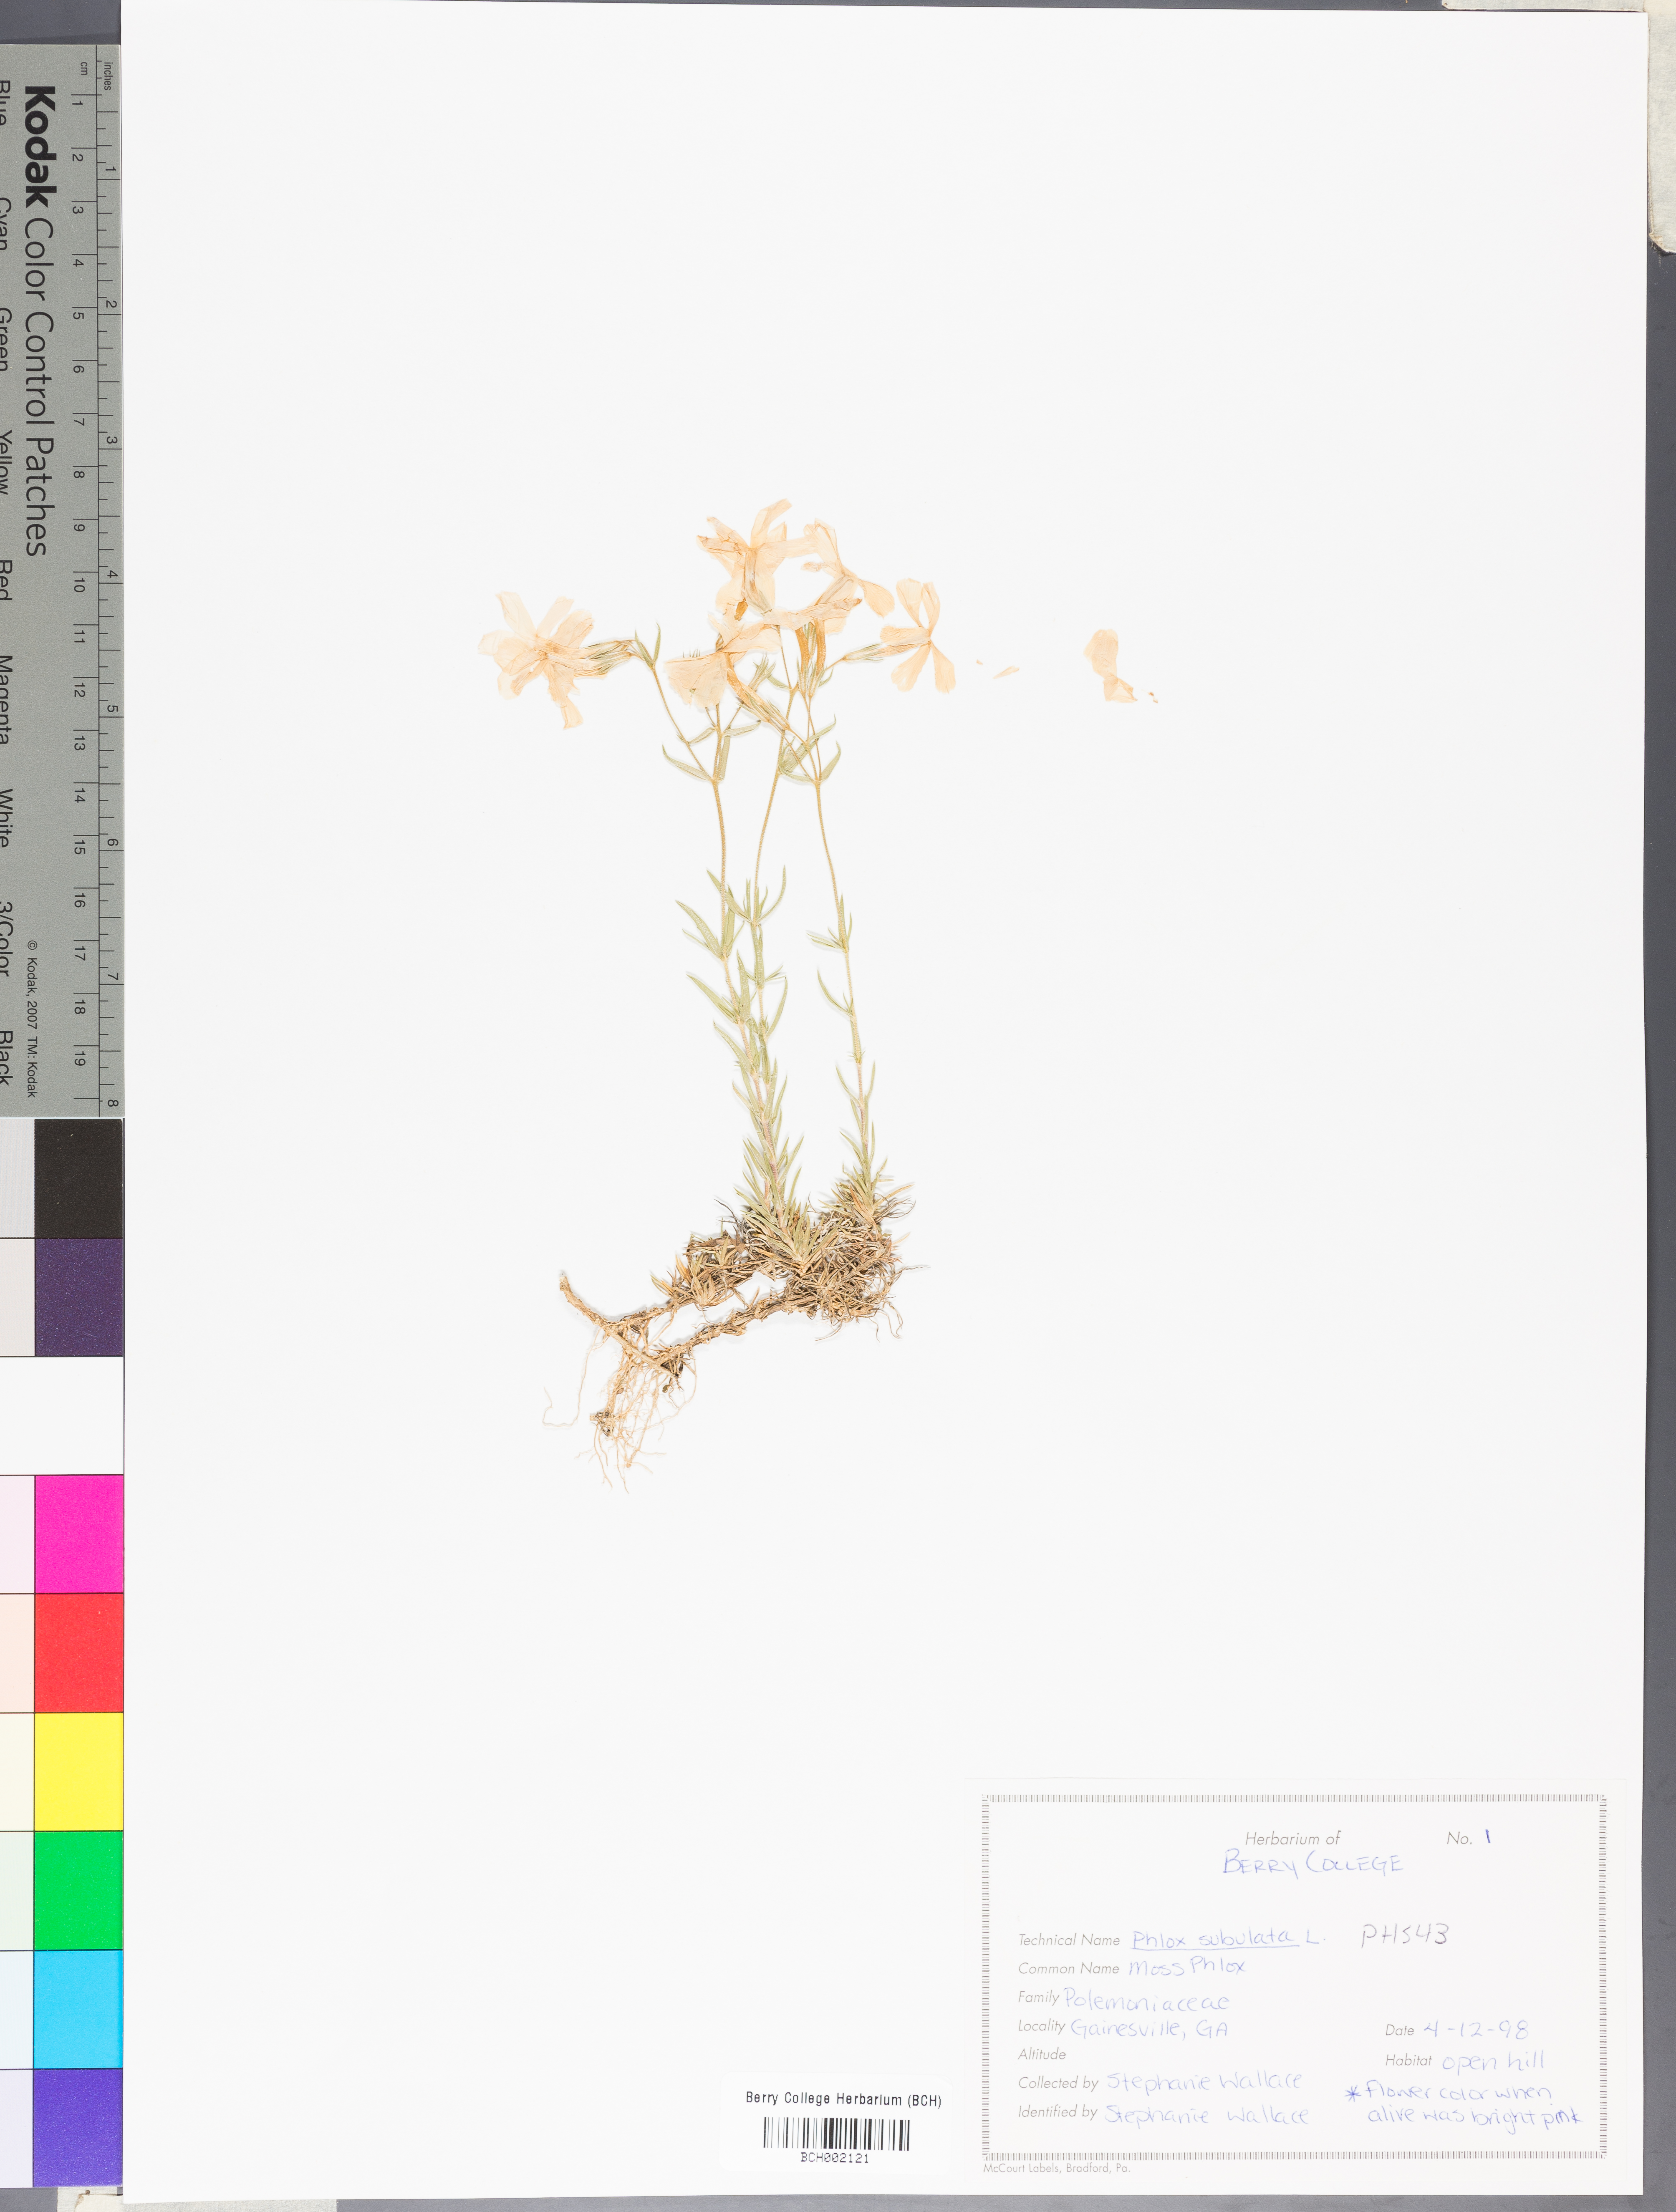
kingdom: Plantae
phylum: Tracheophyta
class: Magnoliopsida
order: Ericales
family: Polemoniaceae
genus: Phlox
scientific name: Phlox subulata
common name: Moss phlox
